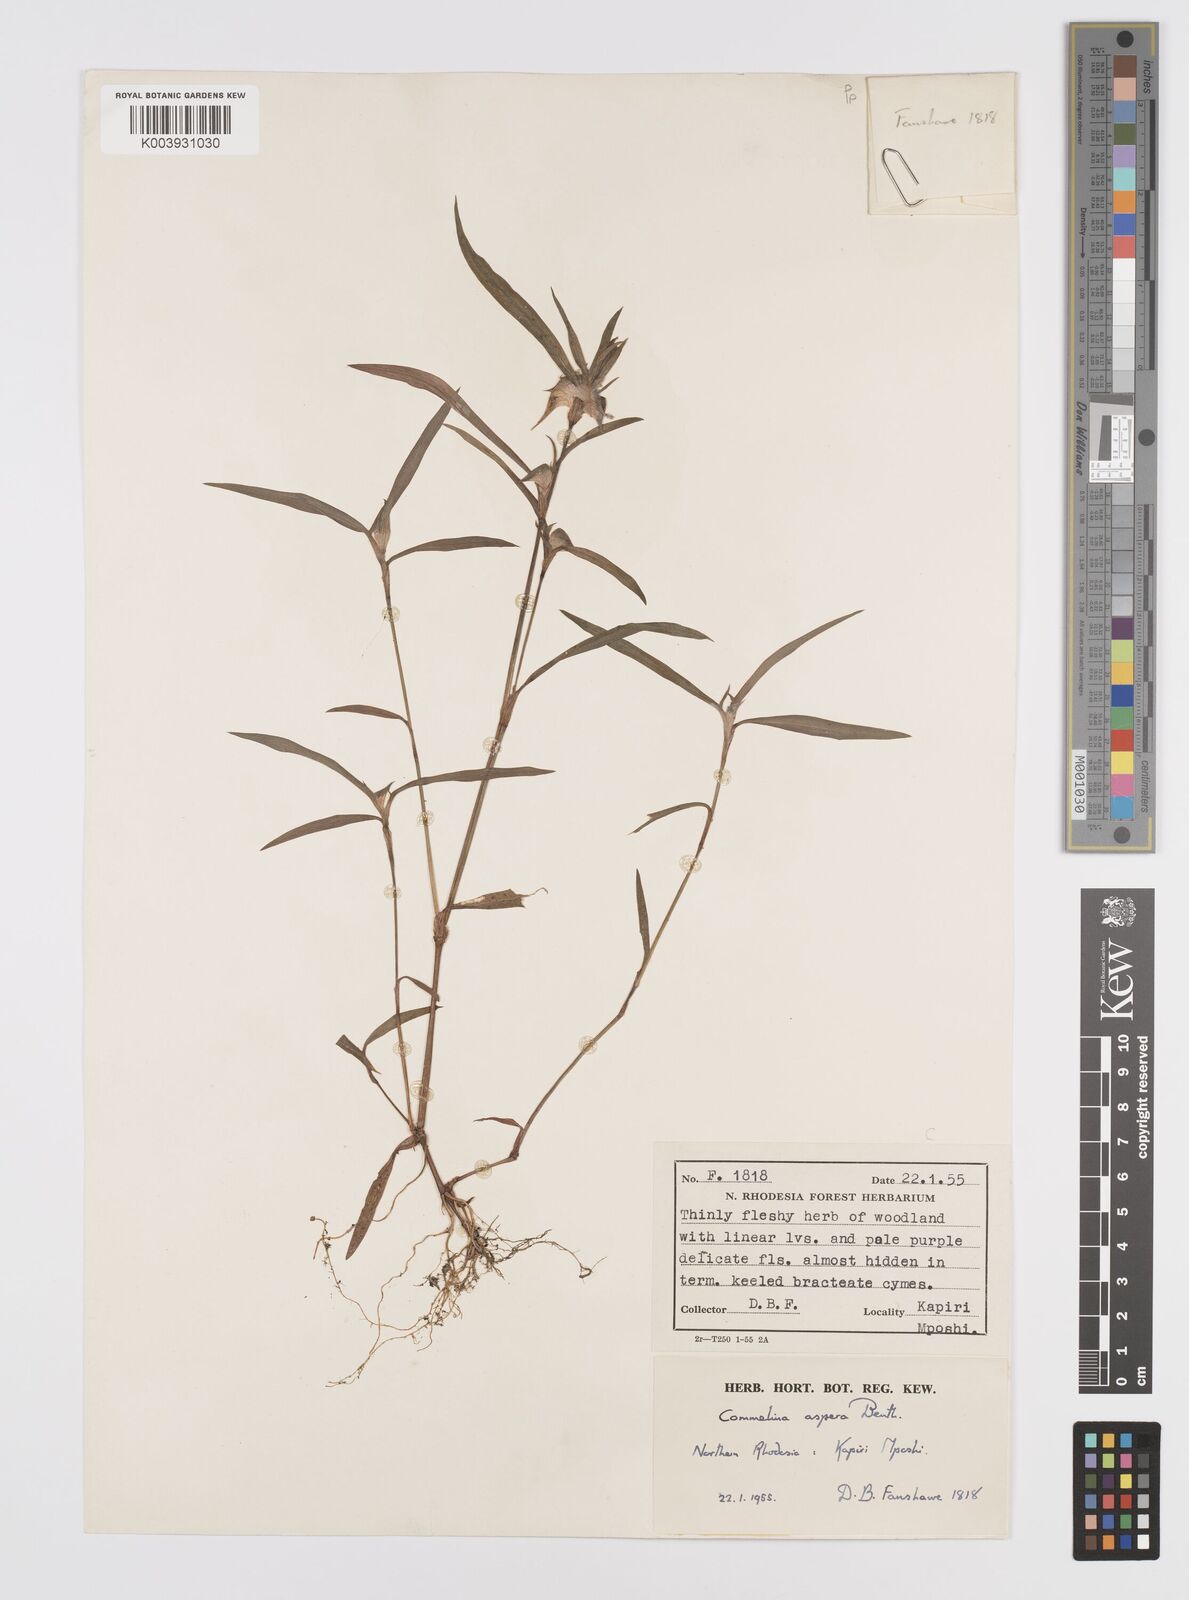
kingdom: Plantae
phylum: Tracheophyta
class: Liliopsida
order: Commelinales
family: Commelinaceae
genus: Commelina
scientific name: Commelina aspera
